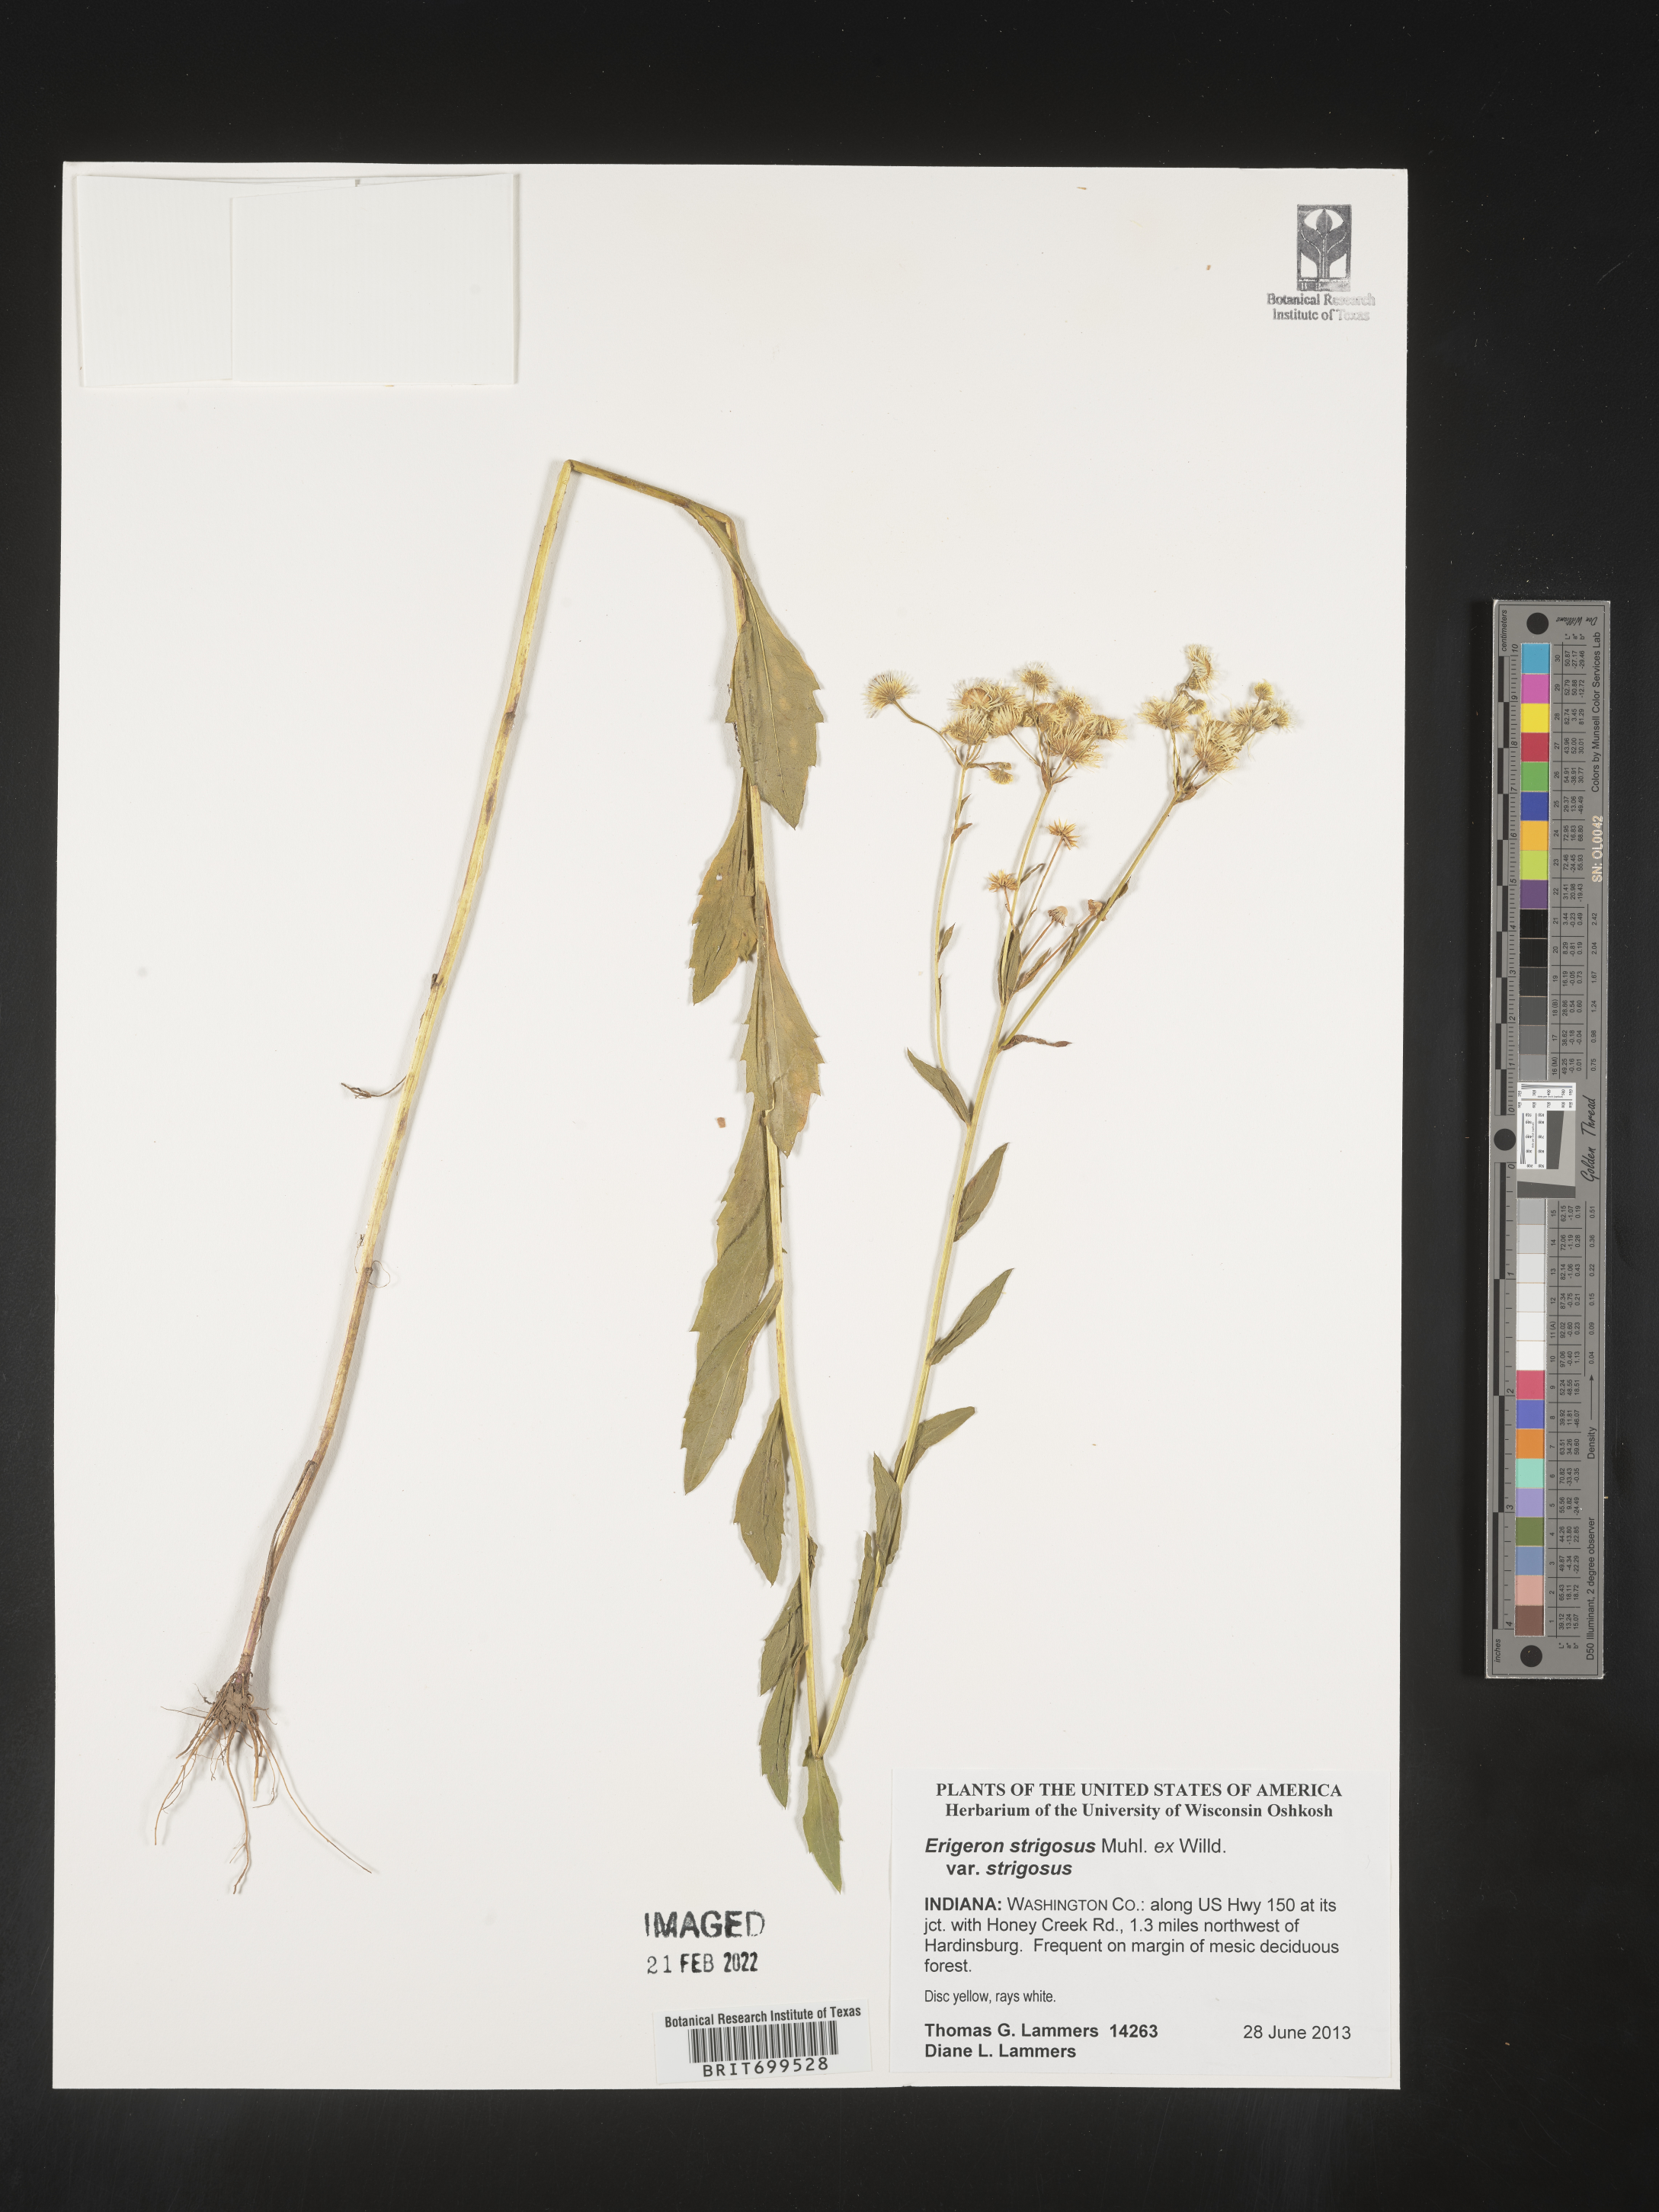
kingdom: Plantae
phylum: Tracheophyta
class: Magnoliopsida
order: Asterales
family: Asteraceae
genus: Erigeron
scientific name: Erigeron strigosus
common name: Common eastern fleabane
